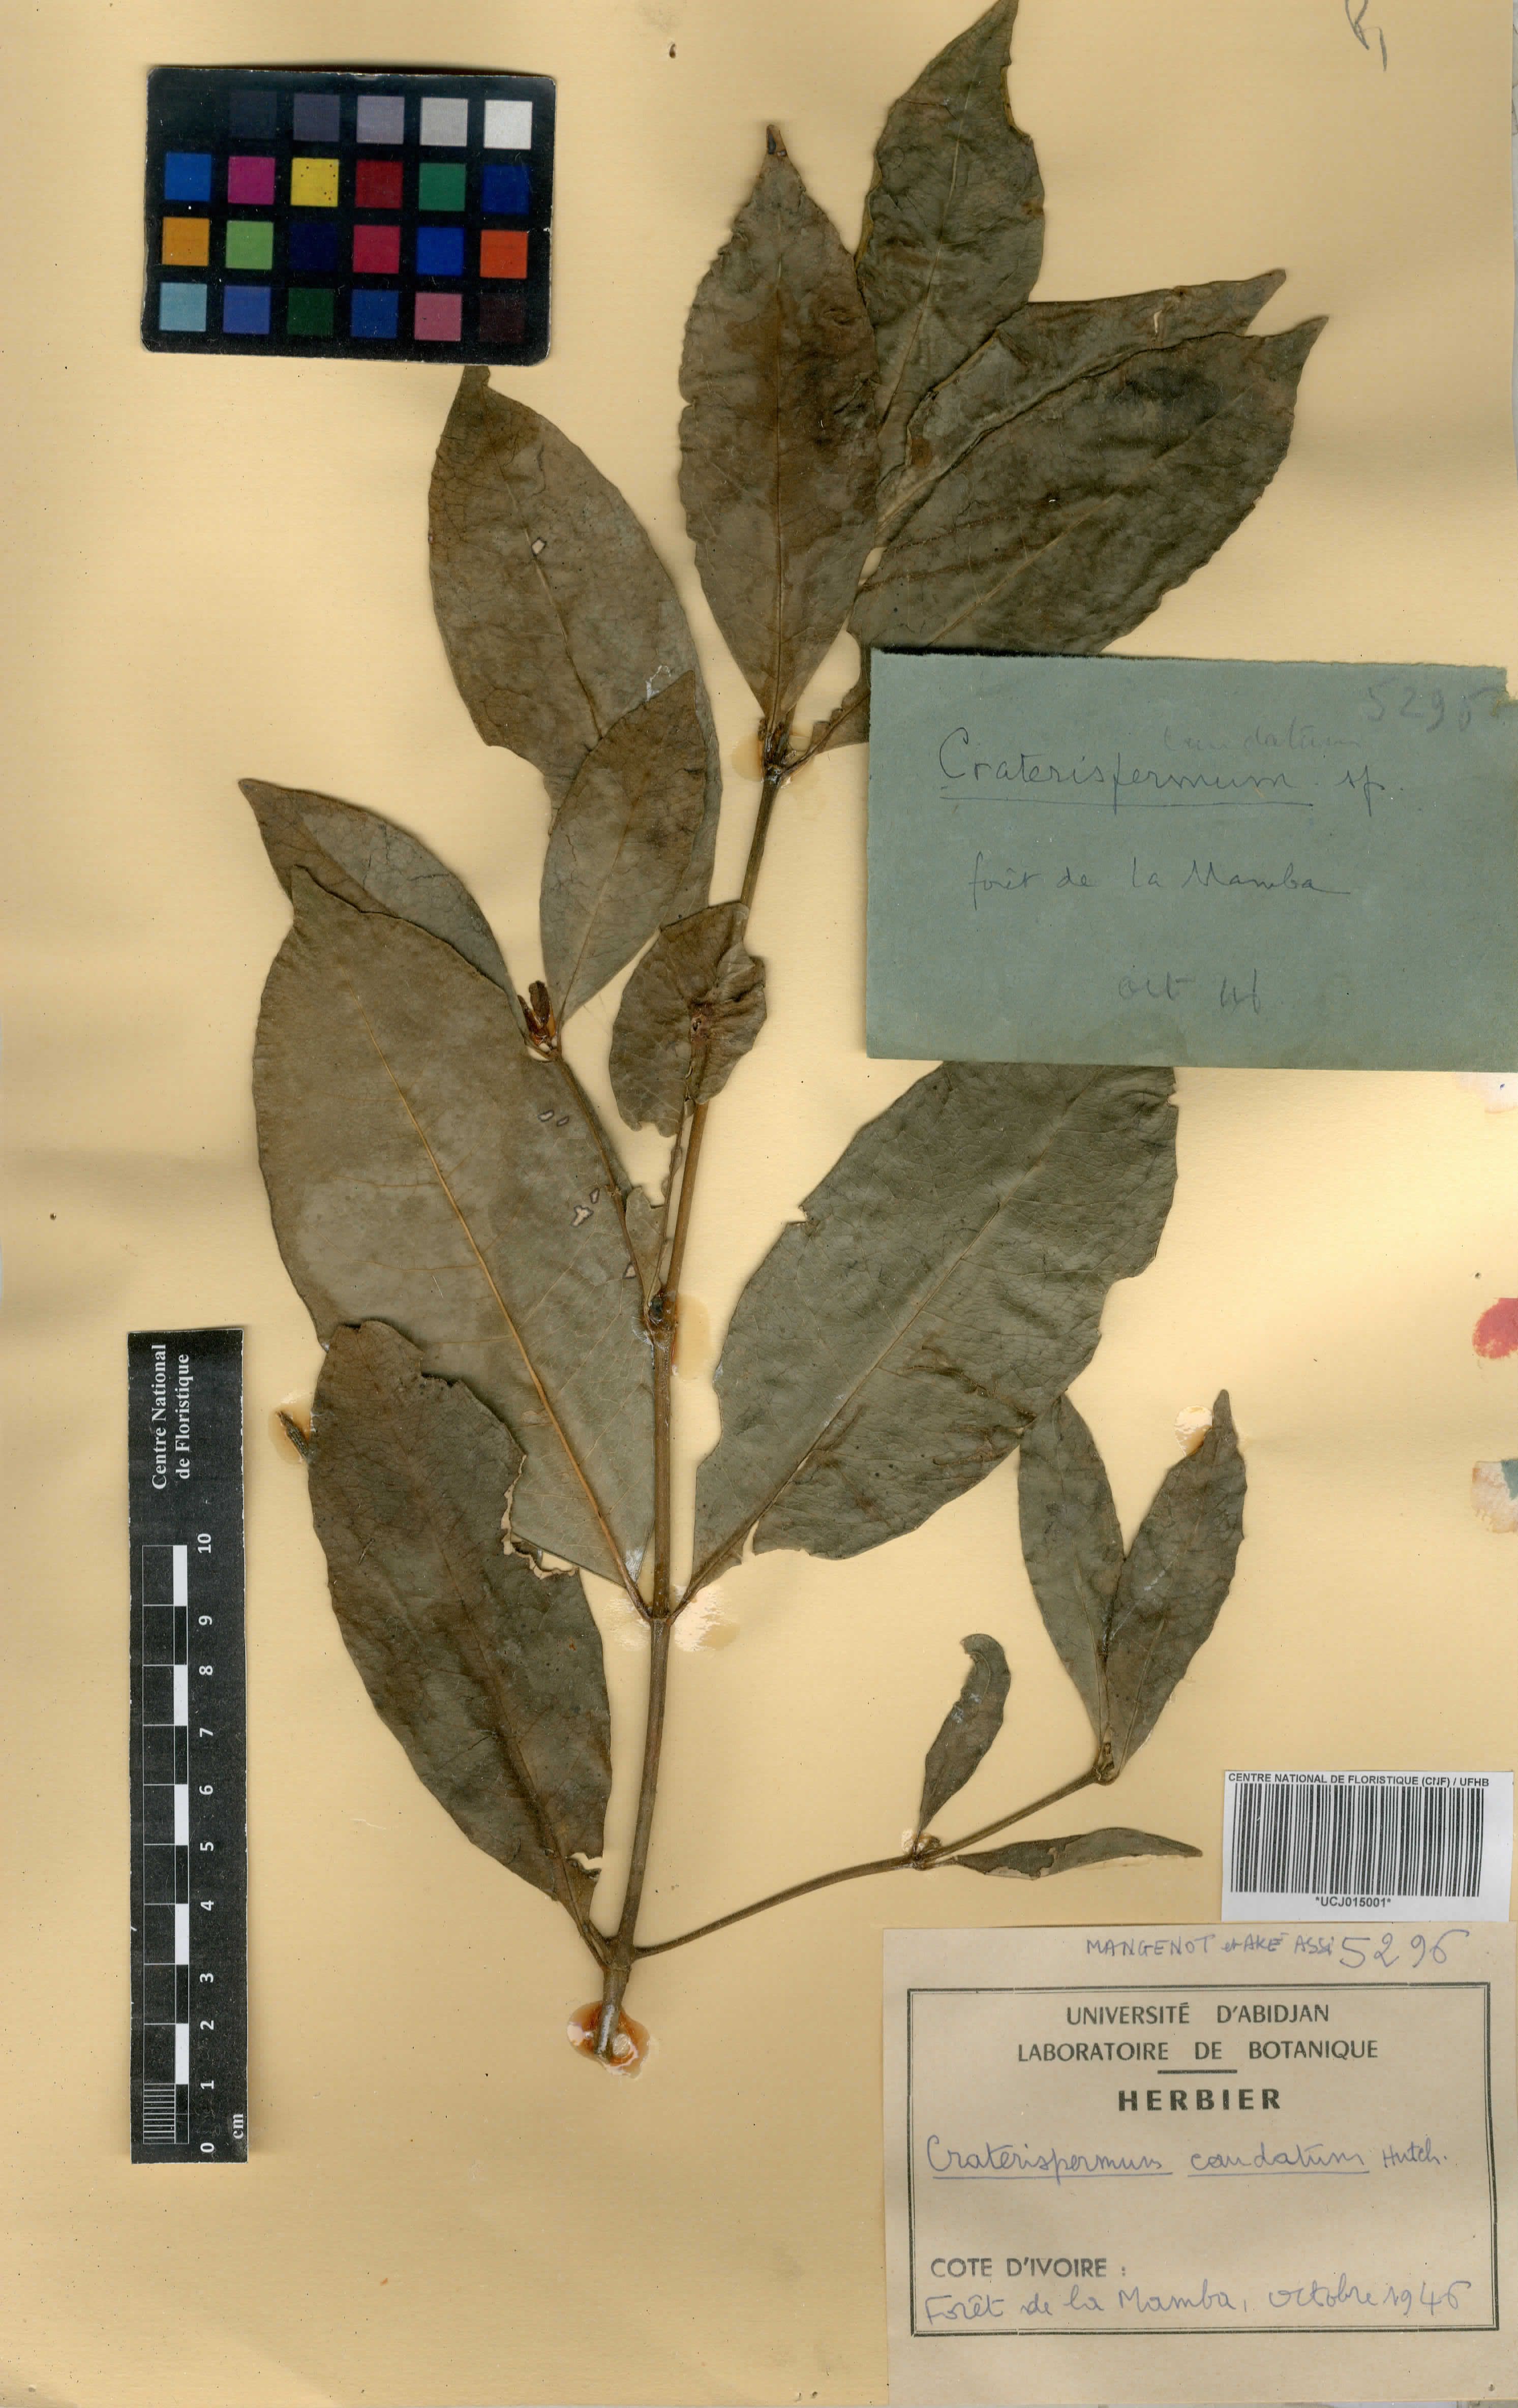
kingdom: Plantae
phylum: Tracheophyta
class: Magnoliopsida
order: Gentianales
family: Rubiaceae
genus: Craterispermum
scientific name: Craterispermum caudatum
